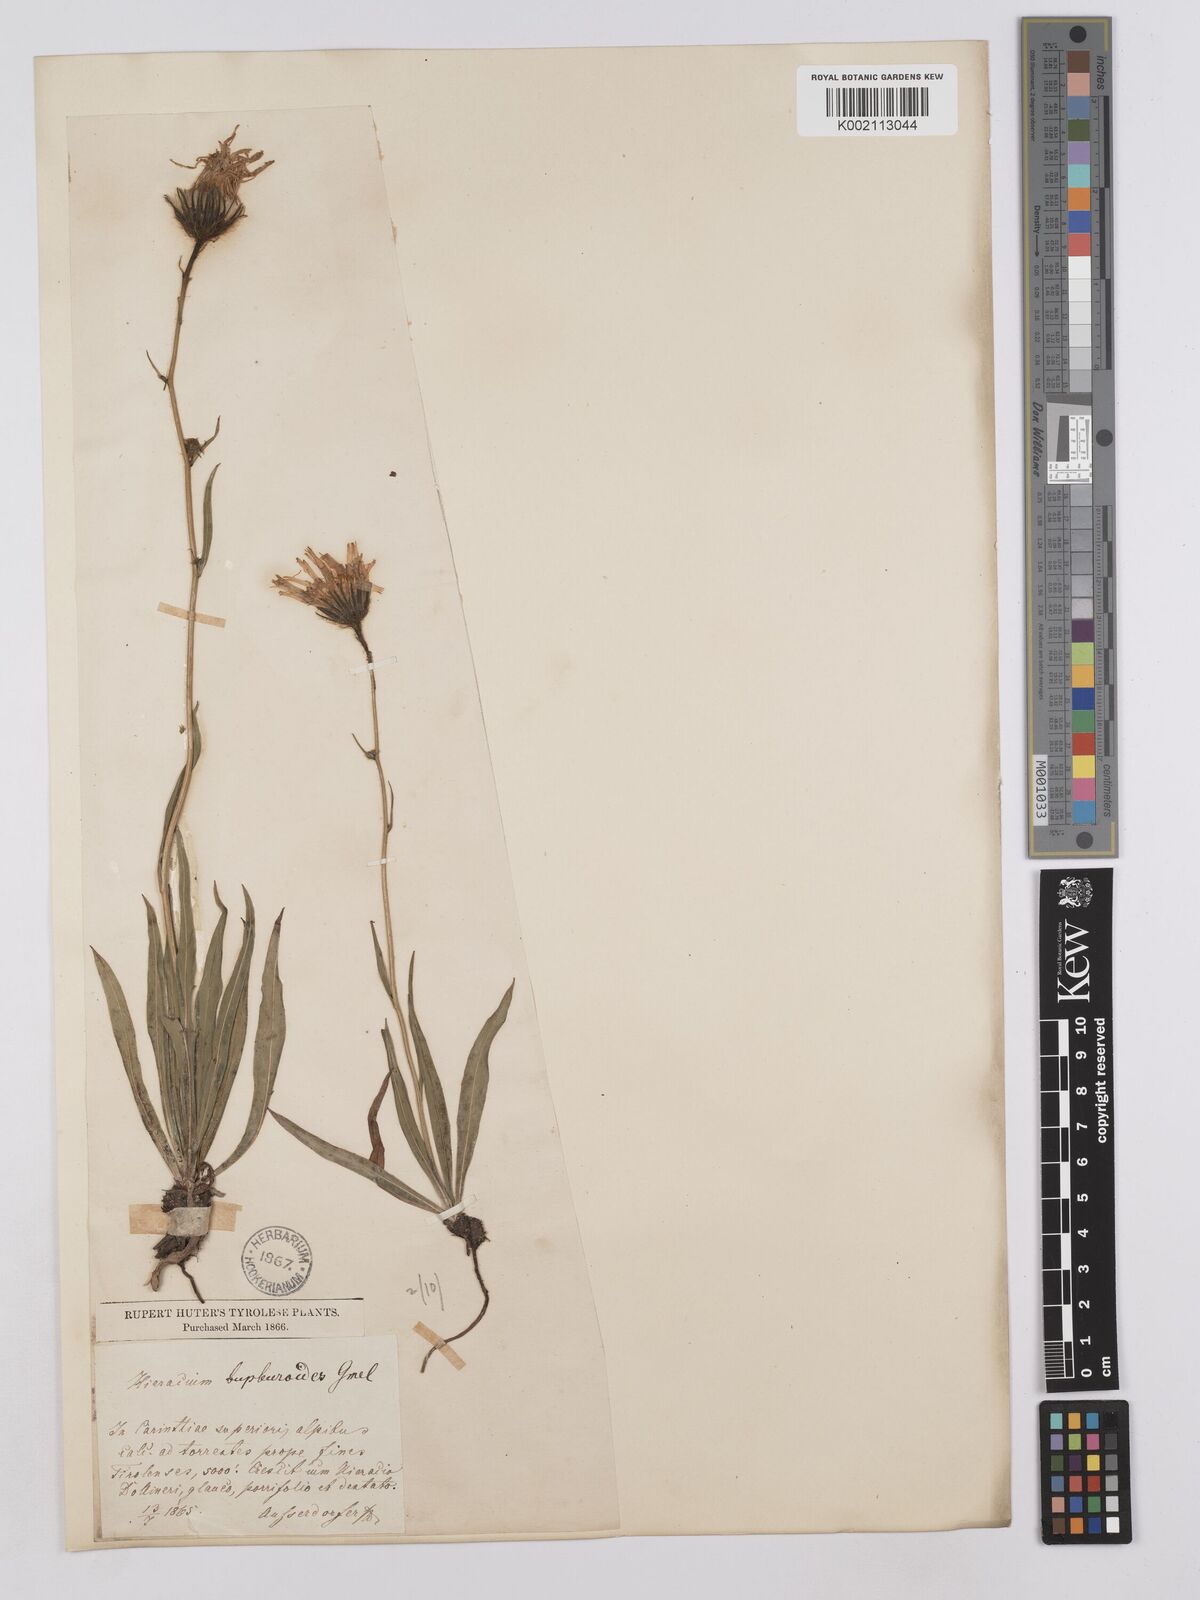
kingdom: Plantae
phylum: Tracheophyta
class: Magnoliopsida
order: Asterales
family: Asteraceae
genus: Hieracium
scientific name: Hieracium bupleuroides
